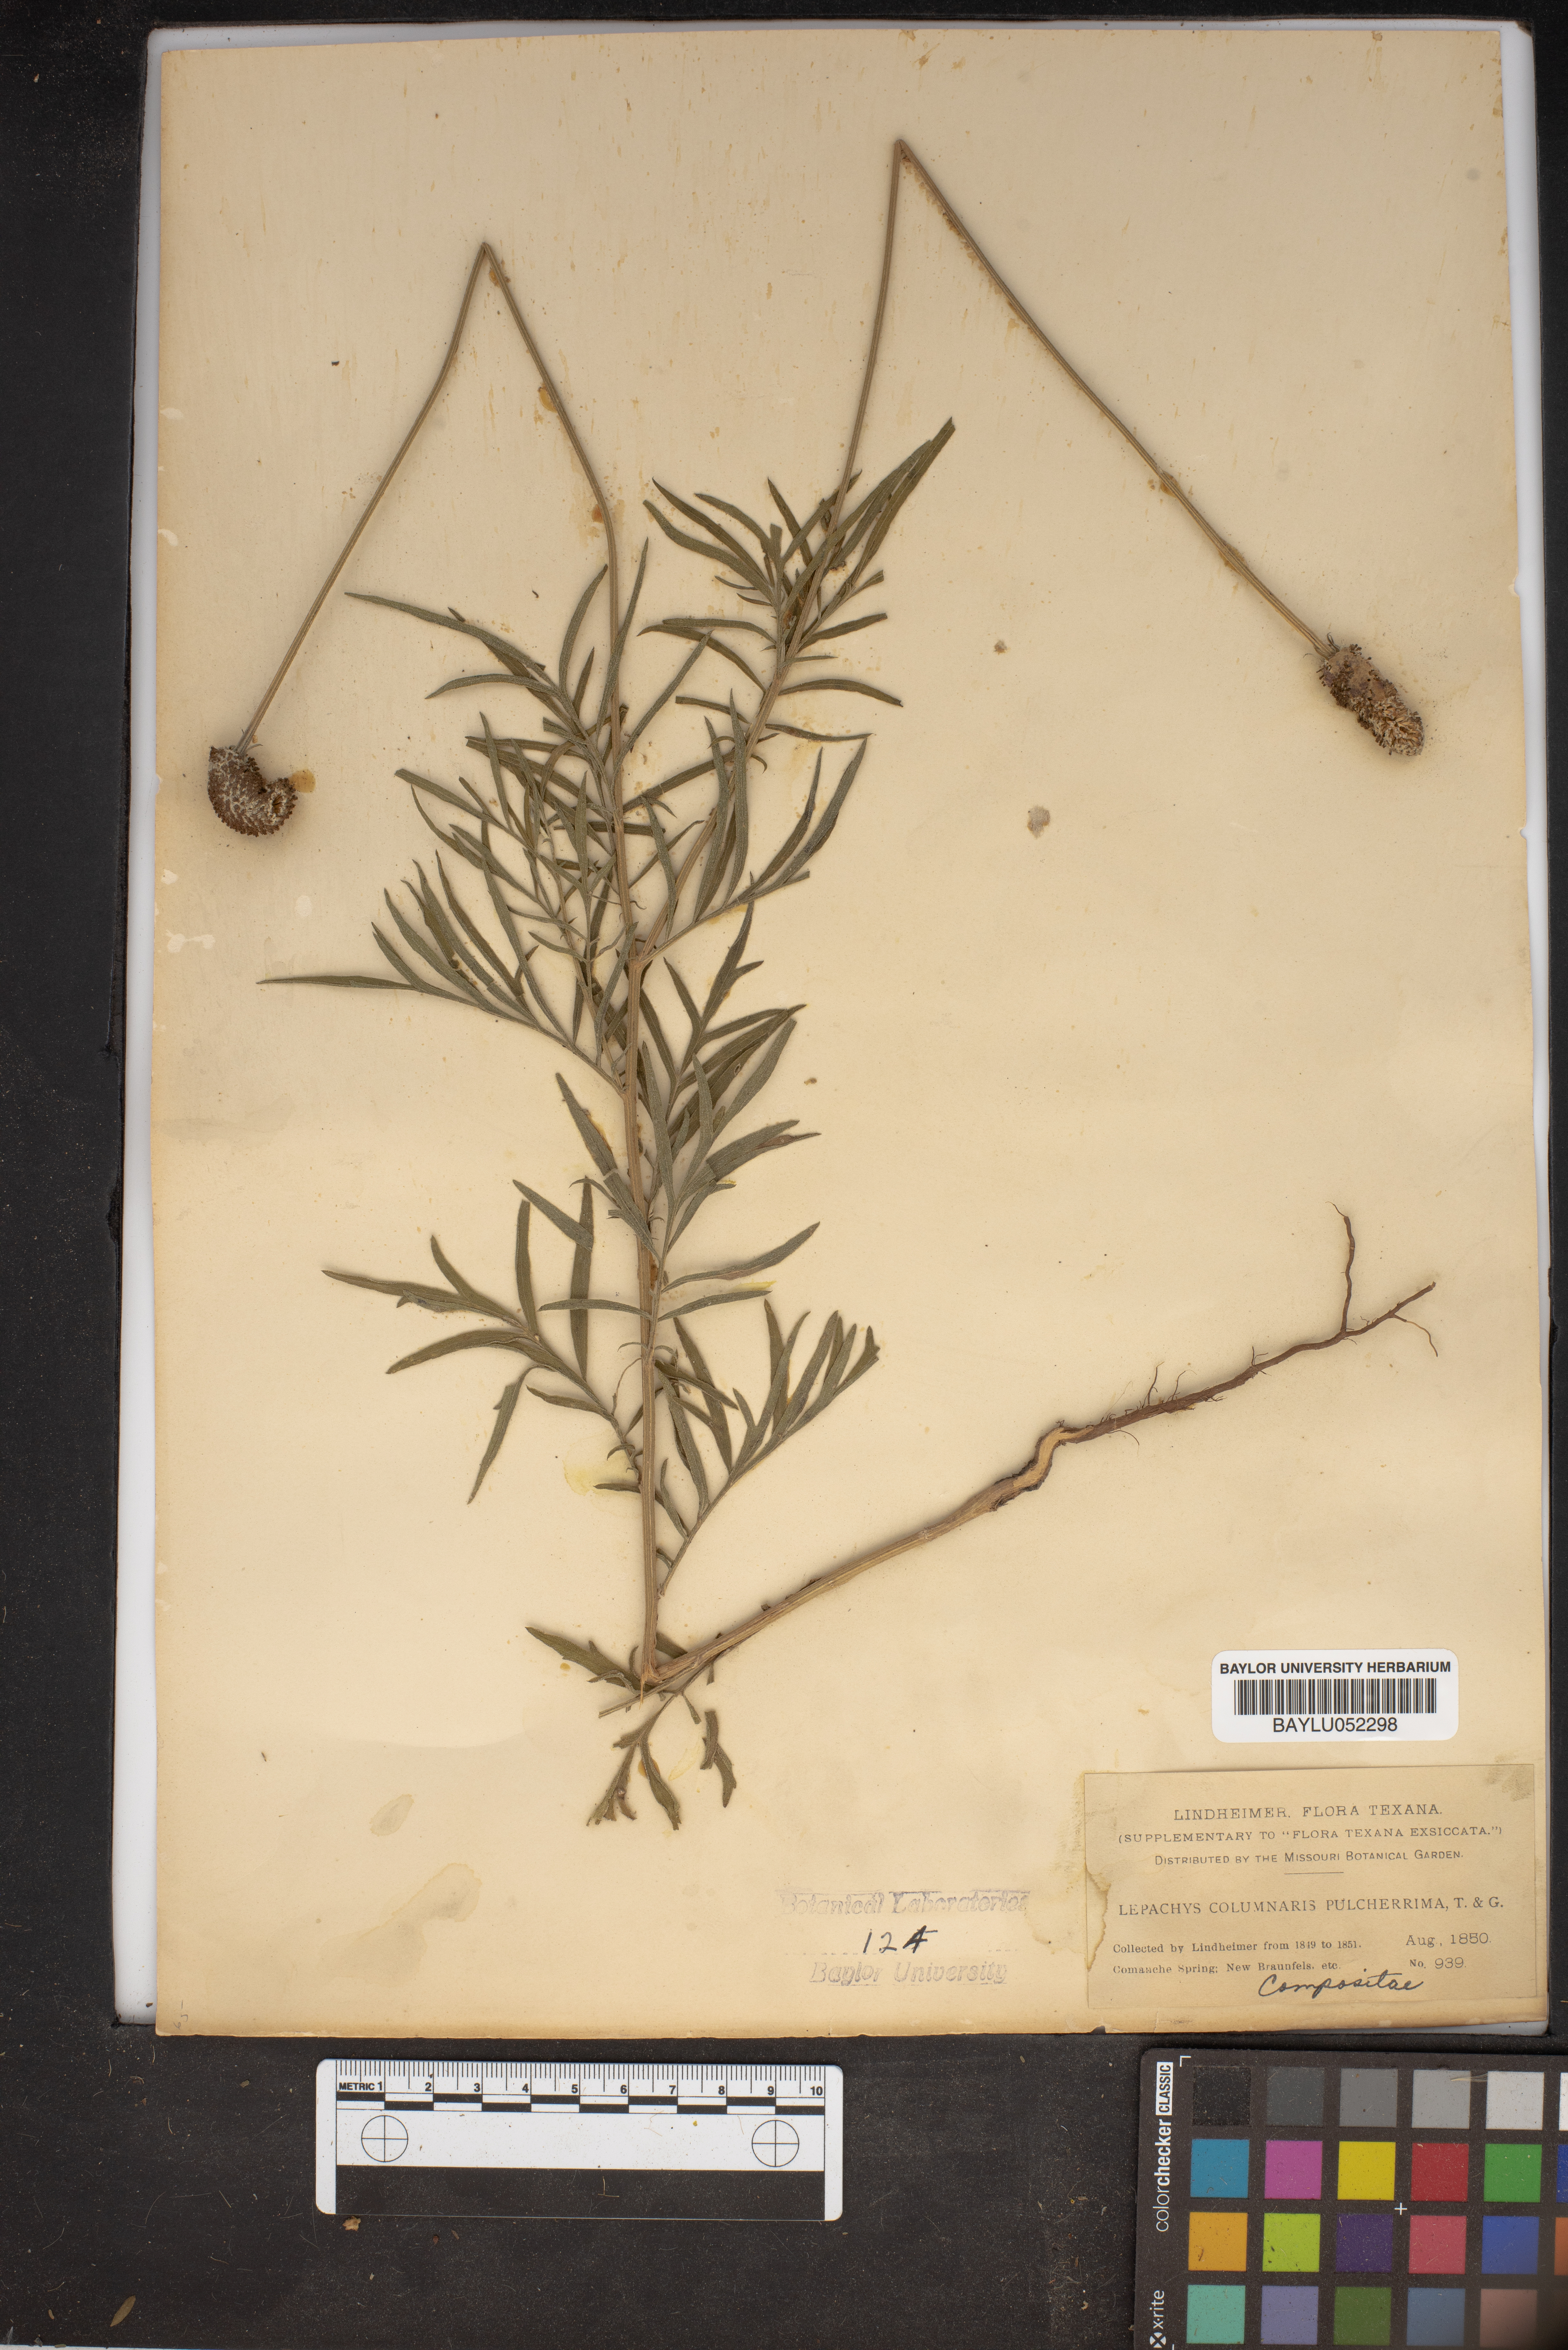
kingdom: Plantae
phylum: Tracheophyta
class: Magnoliopsida
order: Asterales
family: Asteraceae
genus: Ratibida
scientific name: Ratibida columnifera
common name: Prairie coneflower
